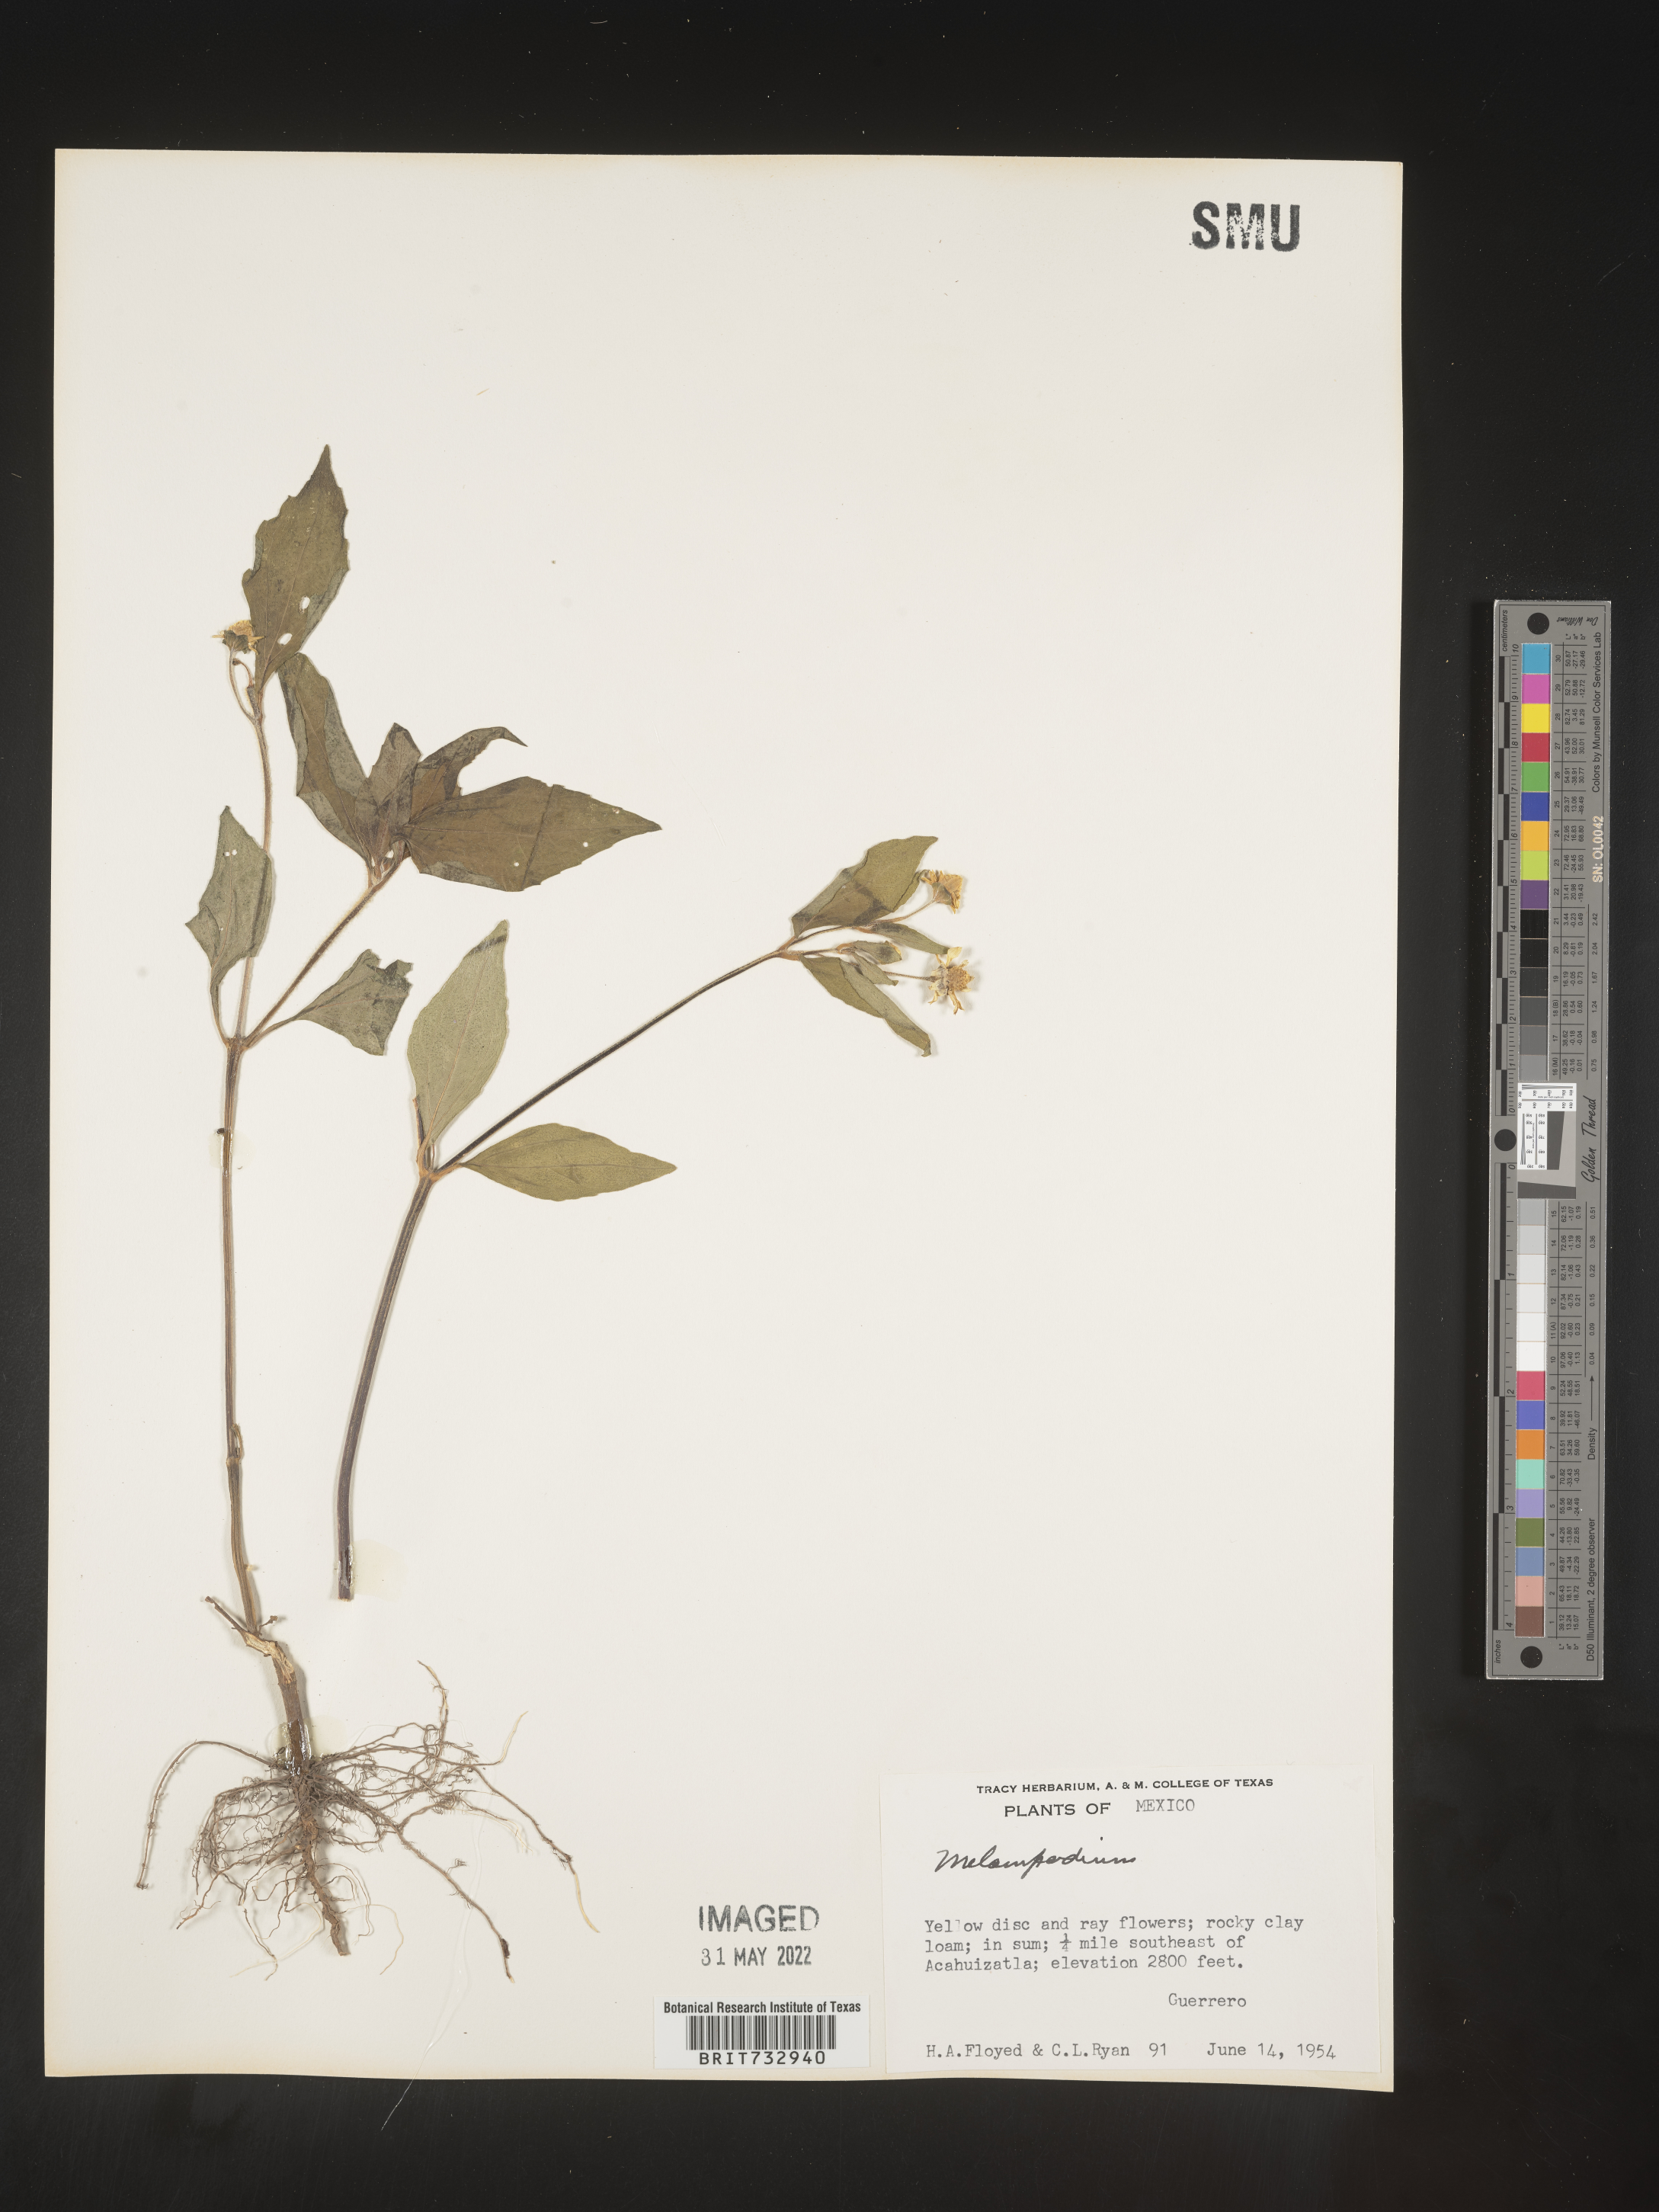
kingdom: Plantae
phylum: Tracheophyta
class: Magnoliopsida
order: Asterales
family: Asteraceae
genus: Melampodium
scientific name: Melampodium
